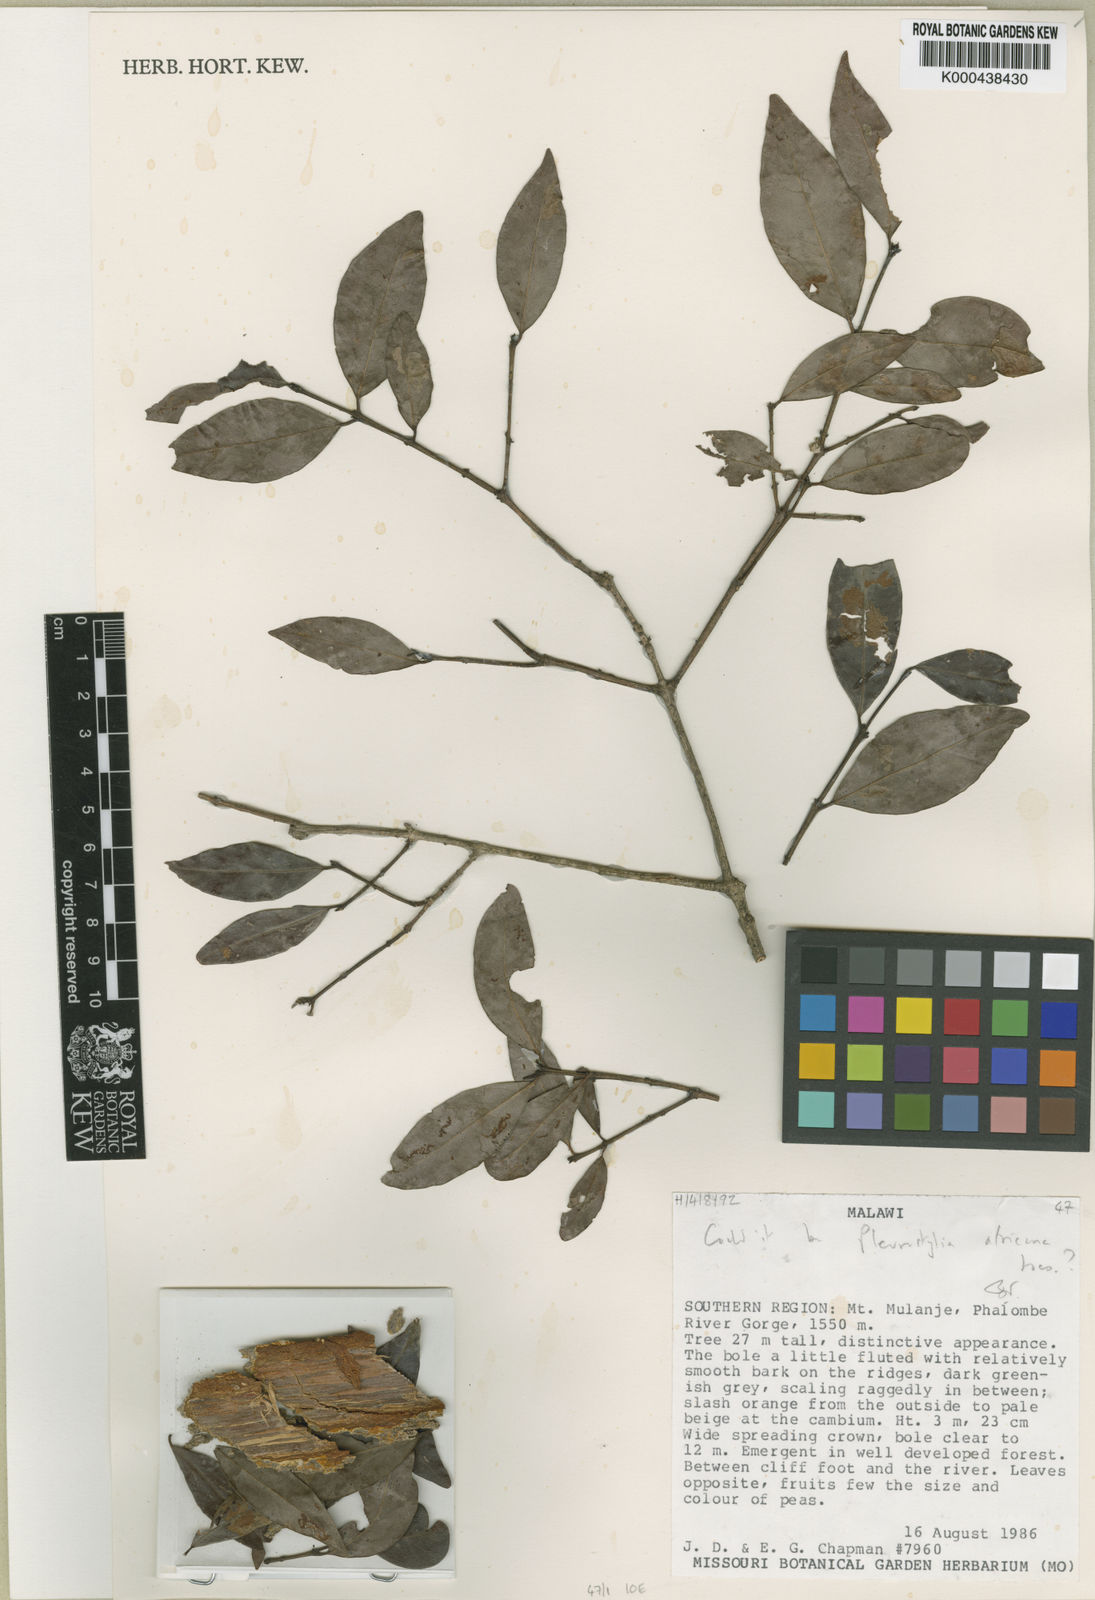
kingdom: Plantae
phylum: Tracheophyta
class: Magnoliopsida
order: Celastrales
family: Celastraceae
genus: Pleurostylia
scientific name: Pleurostylia
